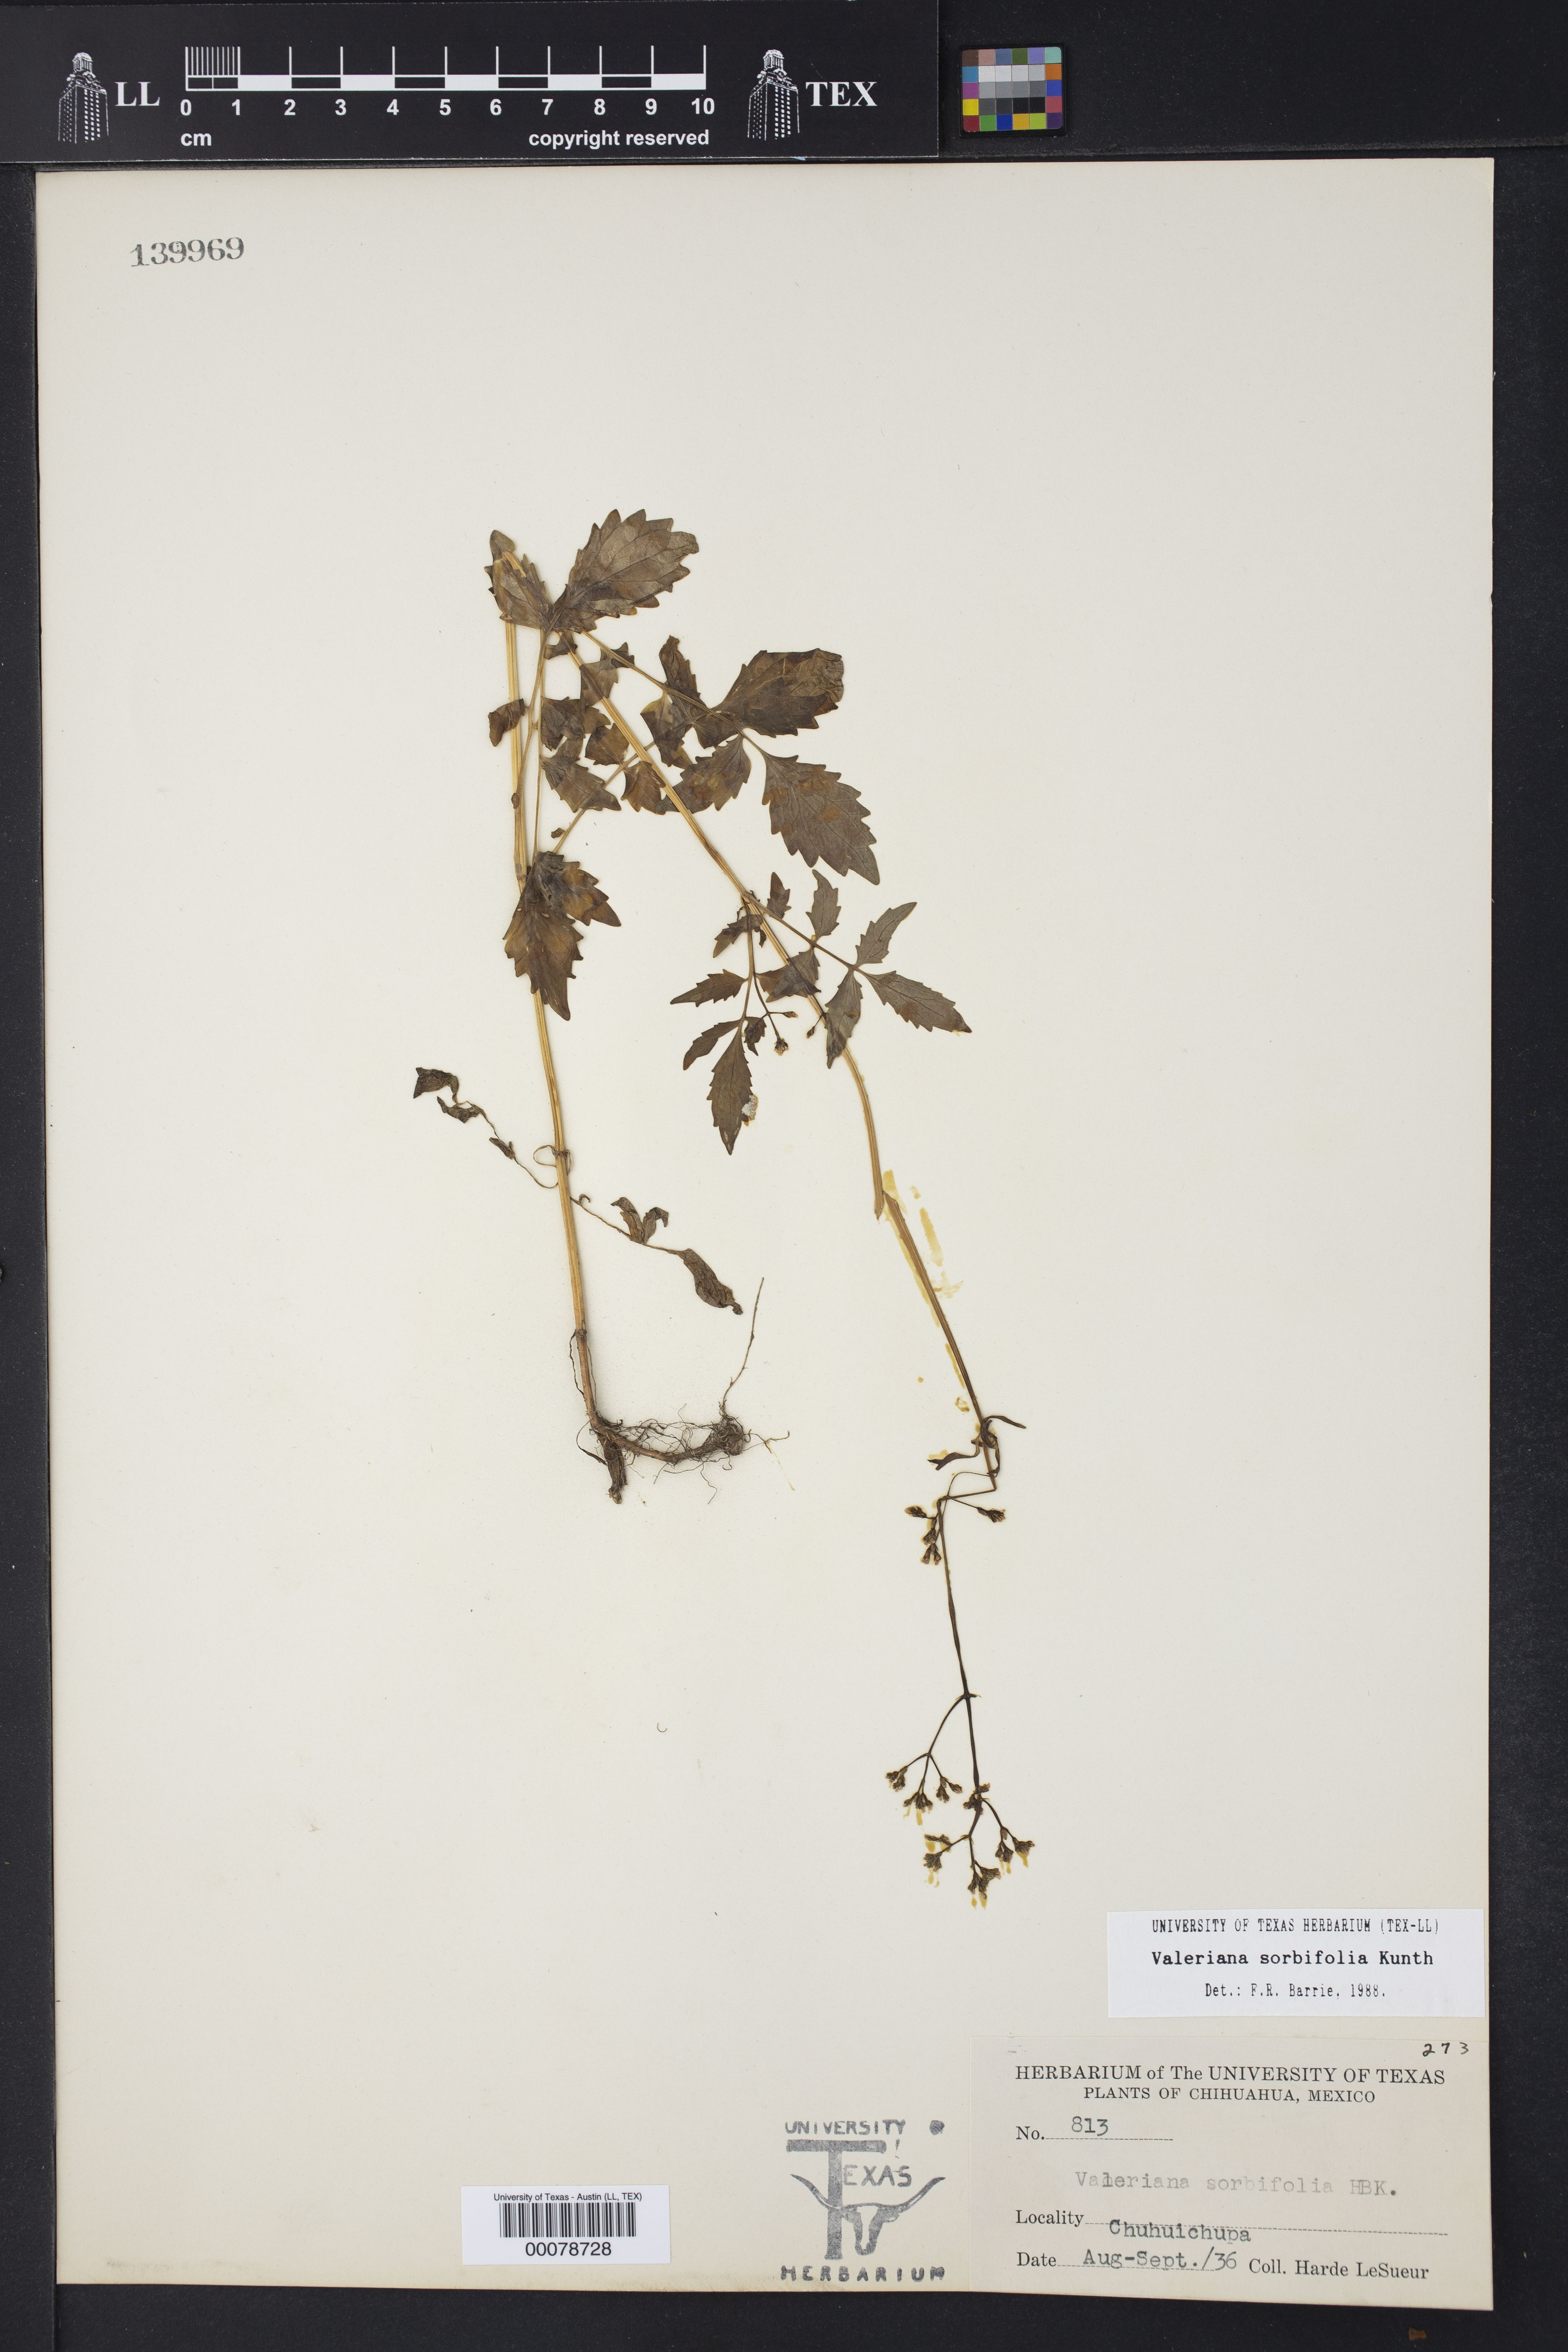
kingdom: Plantae
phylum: Tracheophyta
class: Magnoliopsida
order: Dipsacales
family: Caprifoliaceae
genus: Valeriana
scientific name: Valeriana sorbifolia
